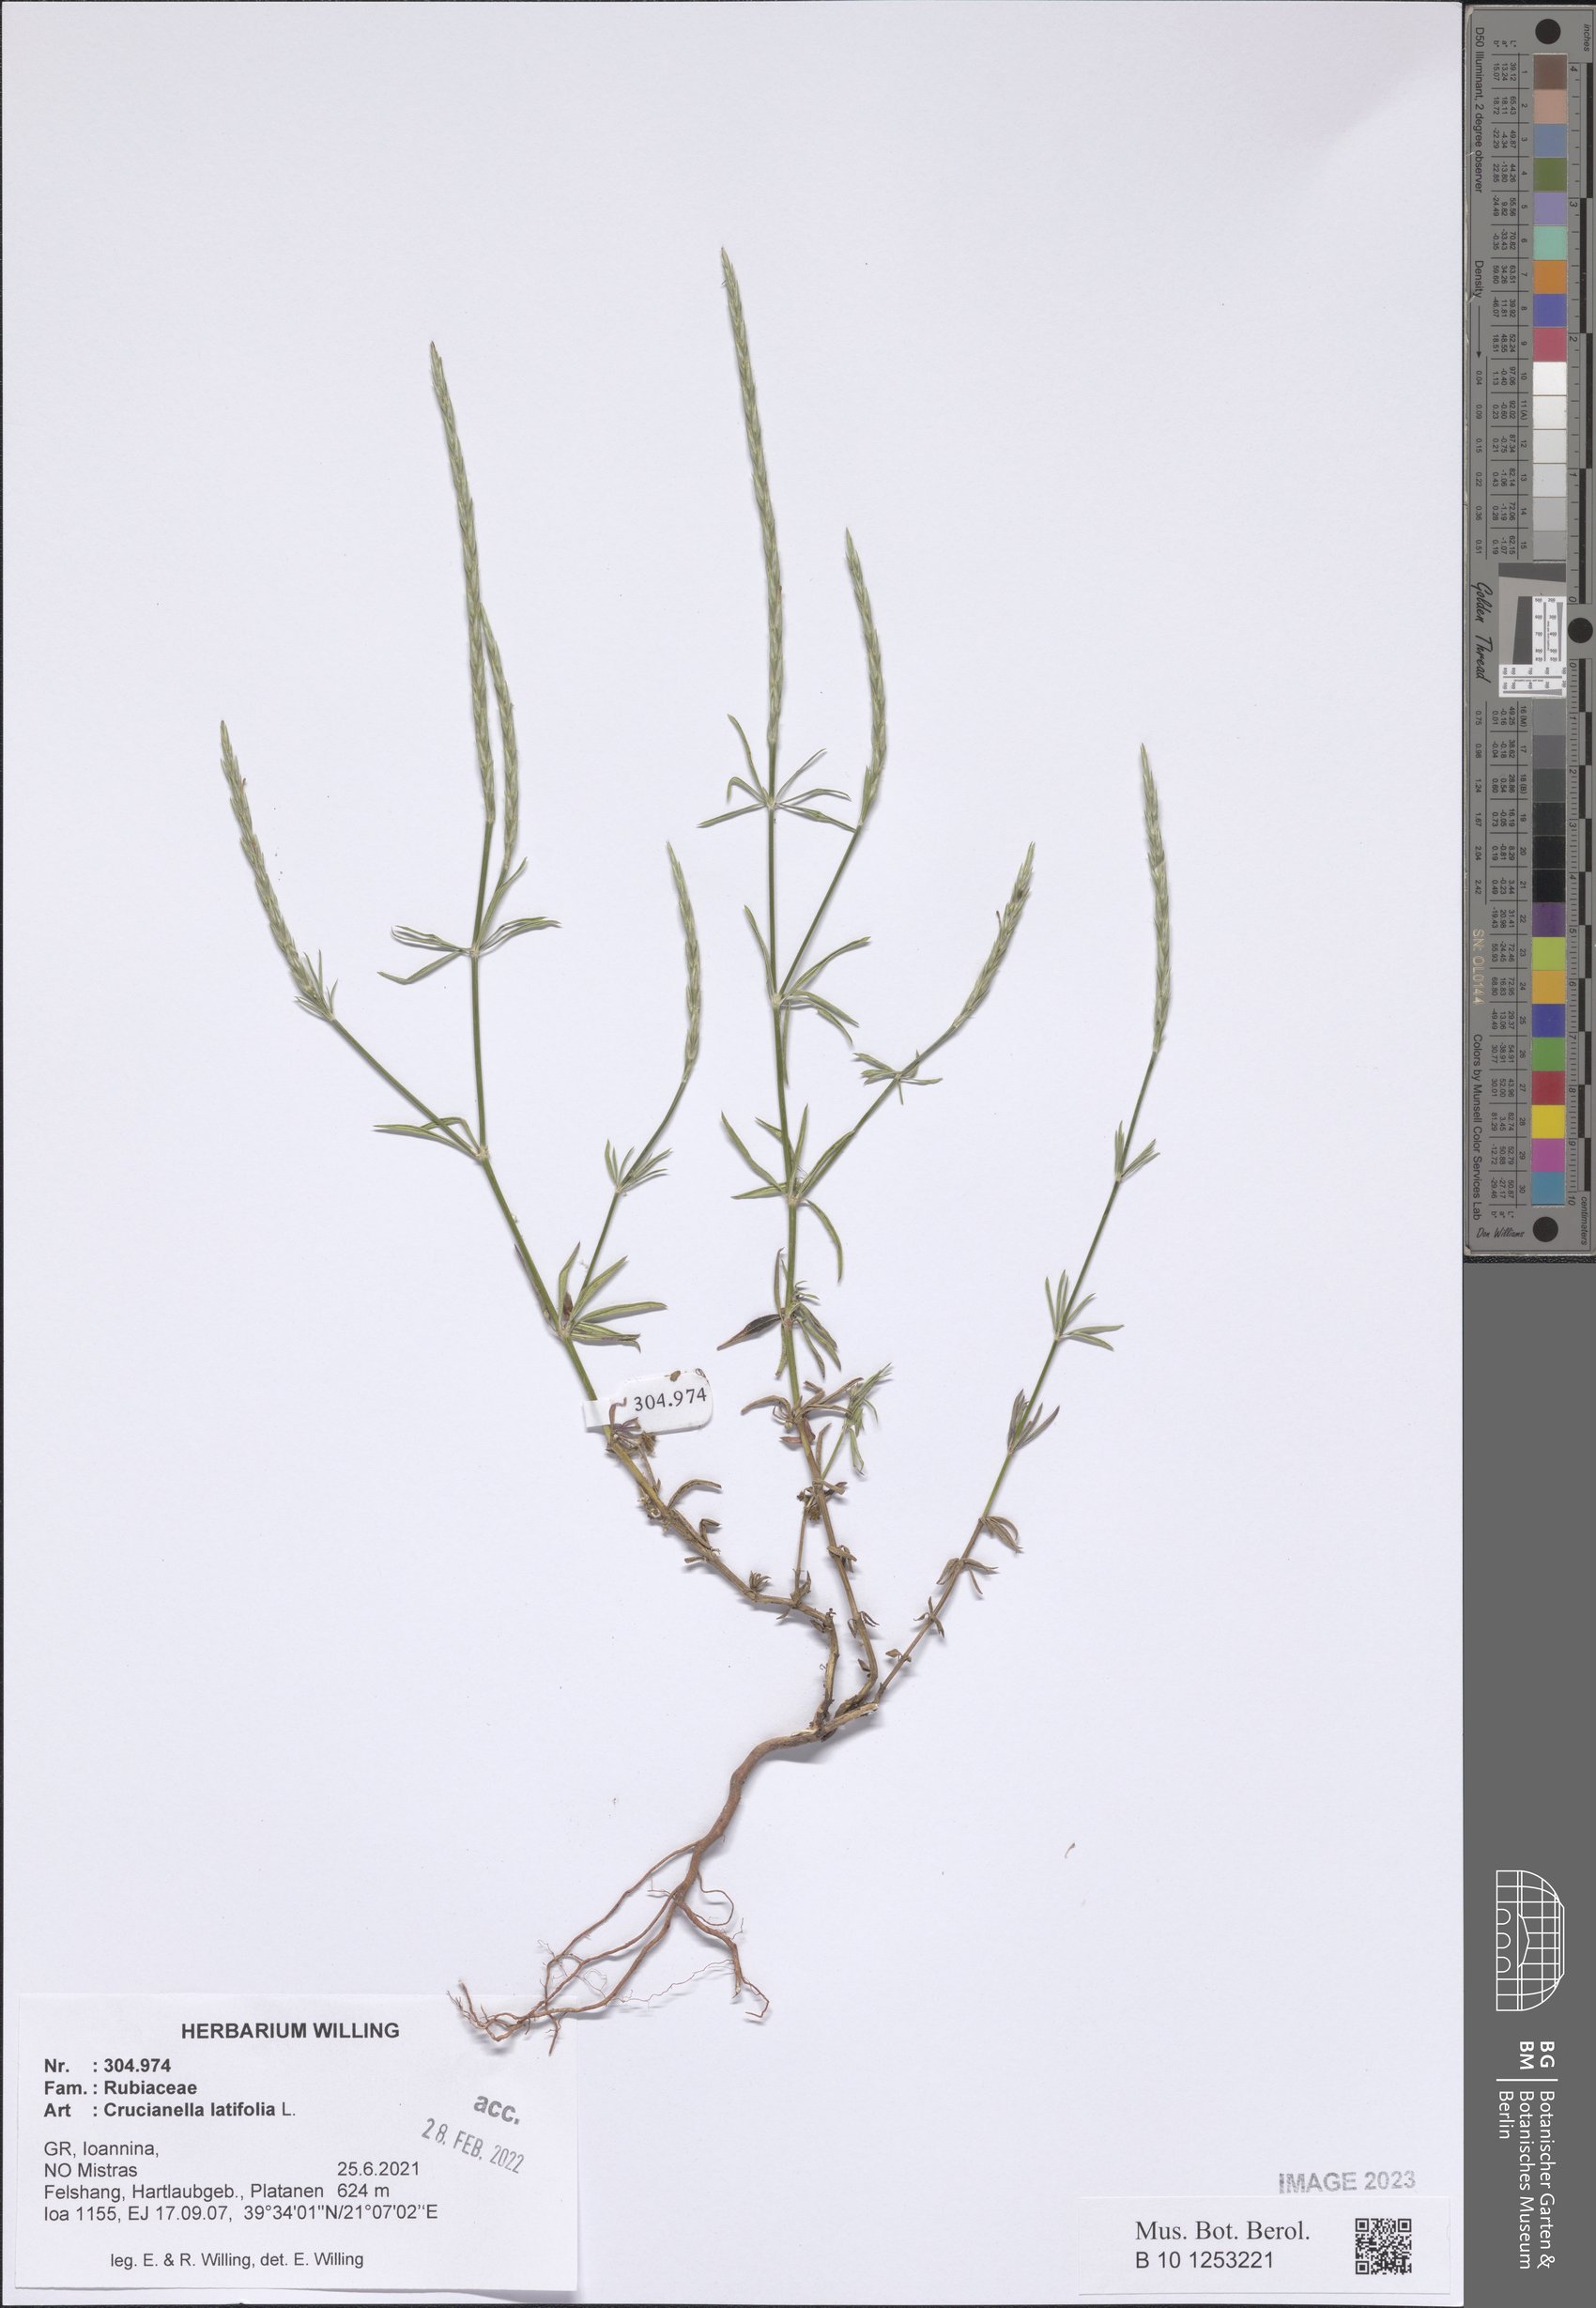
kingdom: Plantae
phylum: Tracheophyta
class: Magnoliopsida
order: Gentianales
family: Rubiaceae
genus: Crucianella
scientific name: Crucianella latifolia
